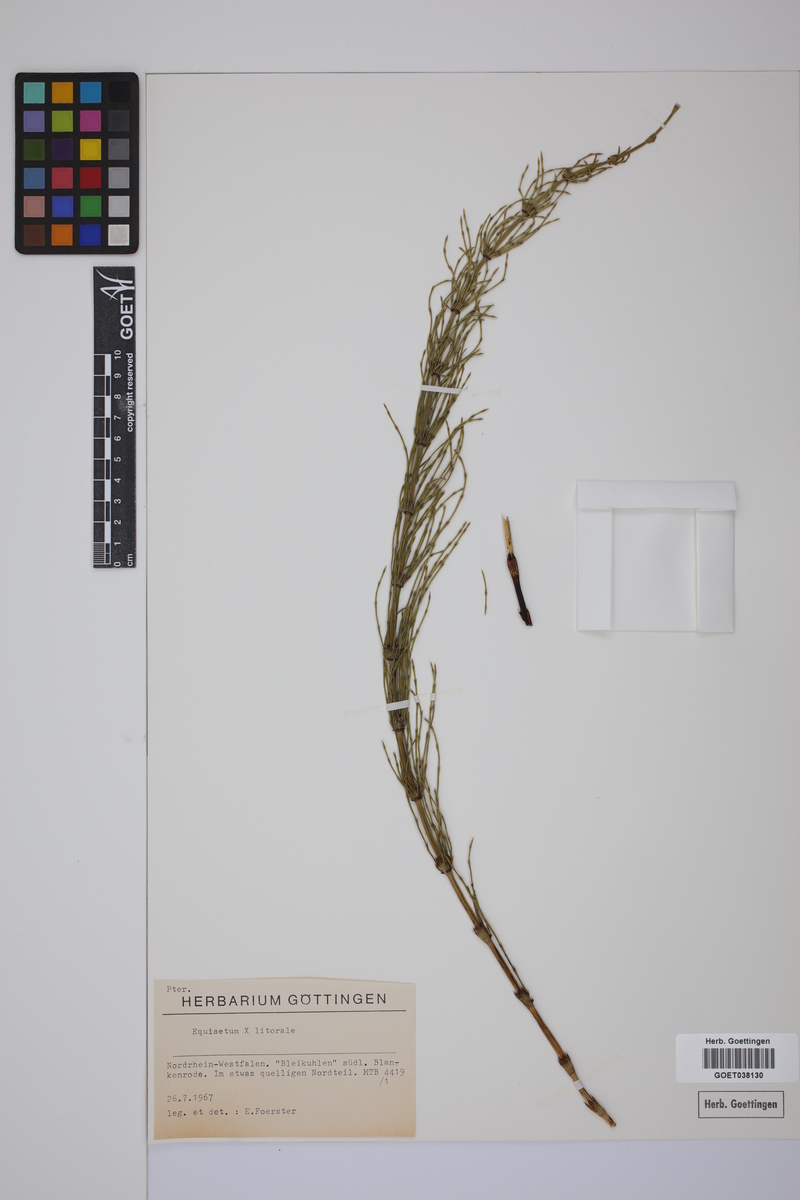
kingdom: Plantae
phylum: Tracheophyta
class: Polypodiopsida
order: Equisetales
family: Equisetaceae
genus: Equisetum
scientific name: Equisetum litorale
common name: Littoral horsetail
